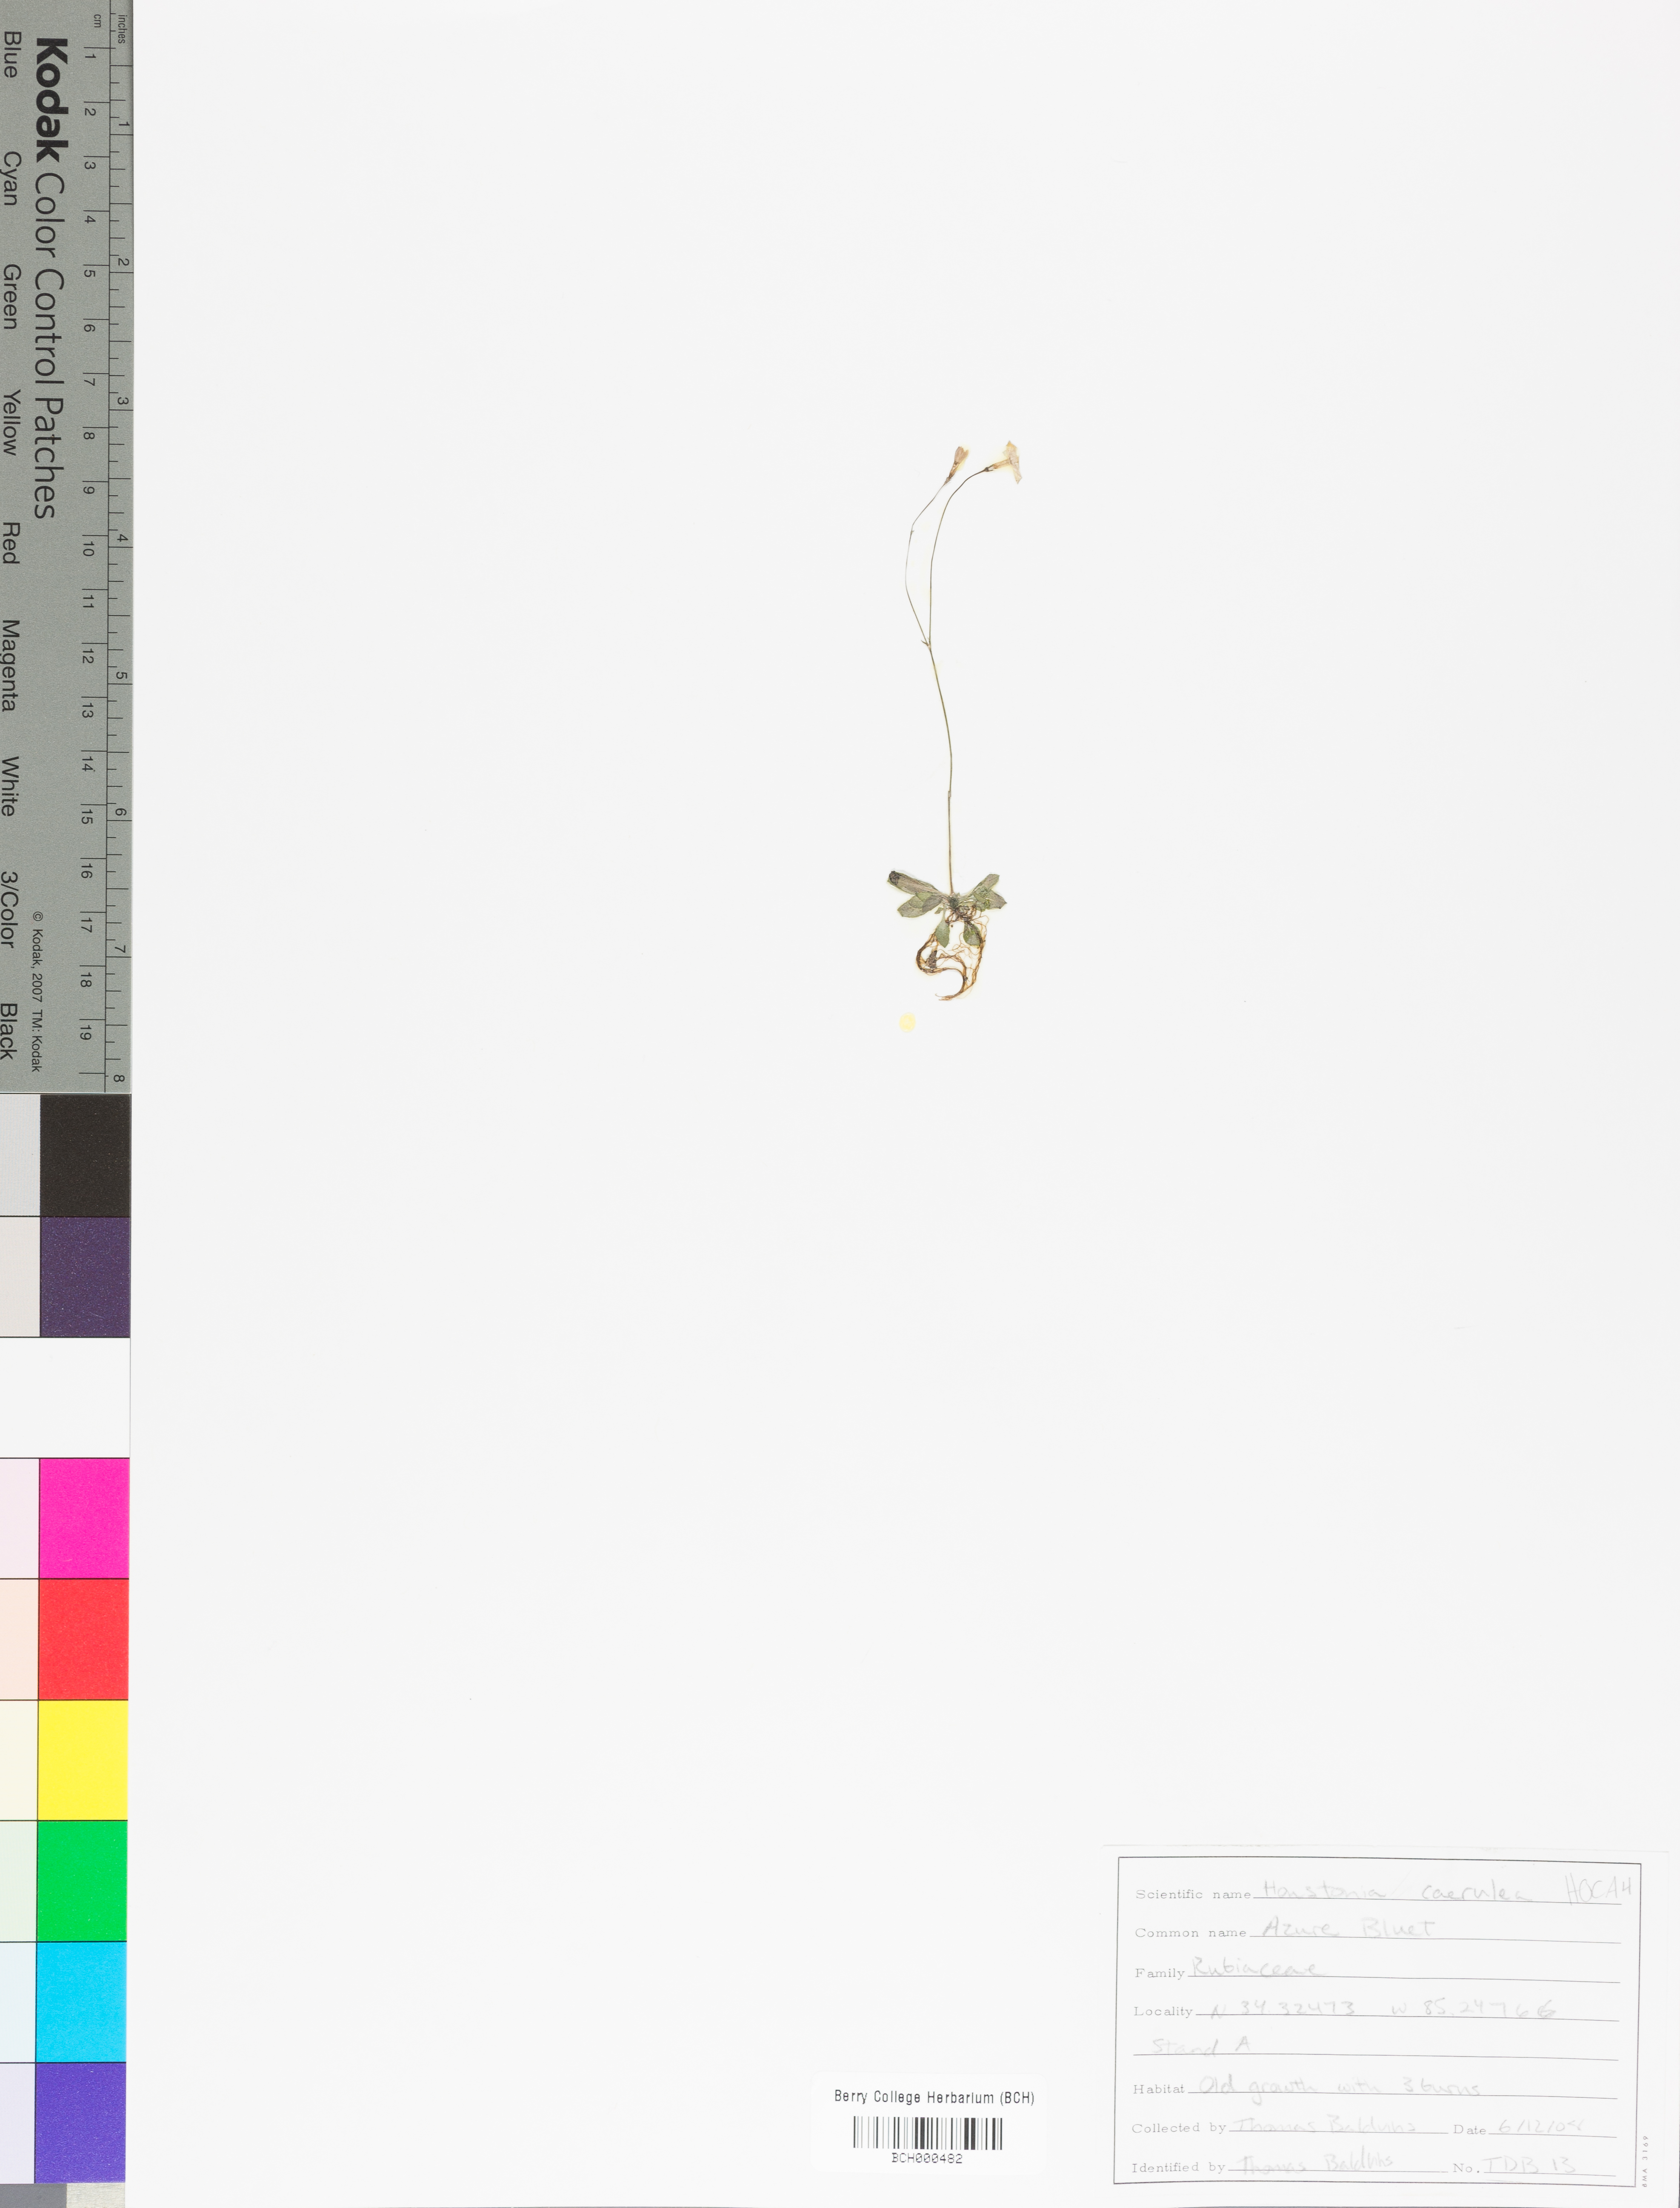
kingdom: Plantae
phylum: Tracheophyta
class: Magnoliopsida
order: Gentianales
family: Rubiaceae
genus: Houstonia
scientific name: Houstonia caerulea
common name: Bluets
